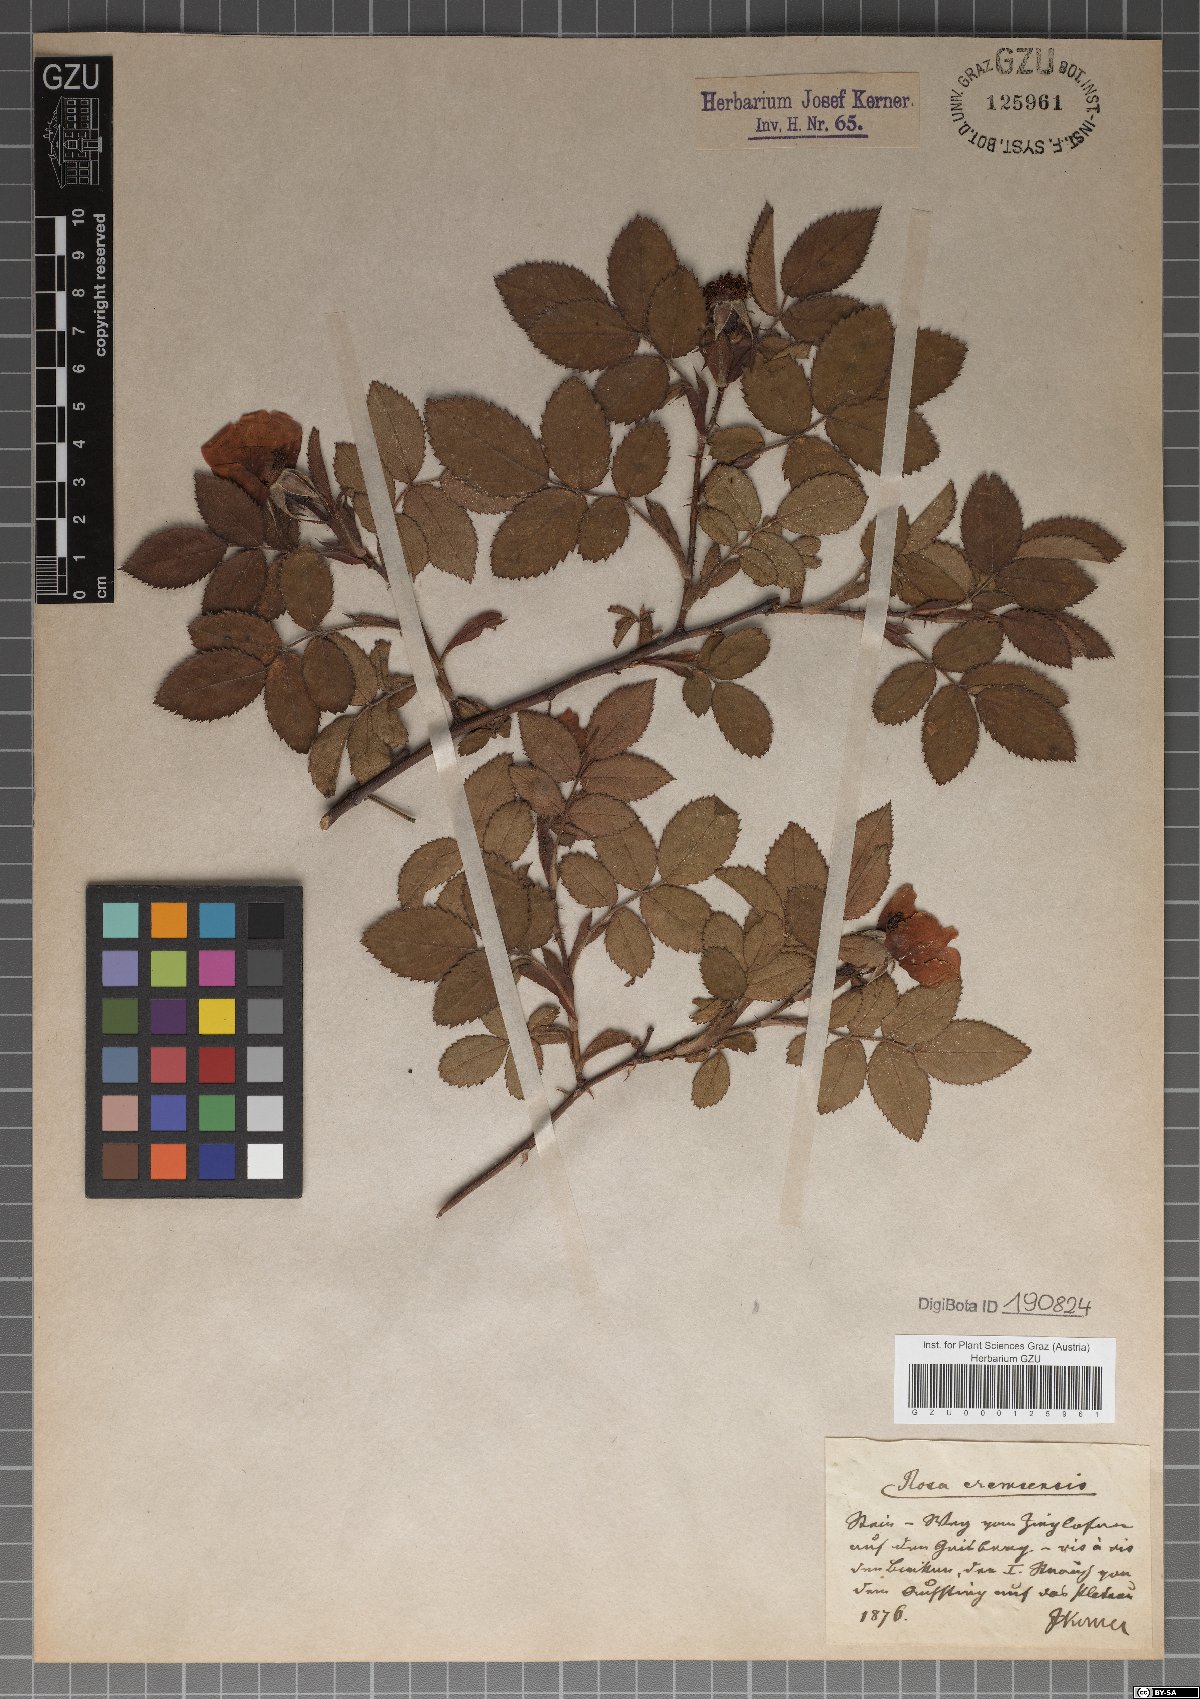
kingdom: Plantae
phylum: Tracheophyta
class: Magnoliopsida
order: Rosales
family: Rosaceae
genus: Rosa
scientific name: Rosa mollis
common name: Rose
